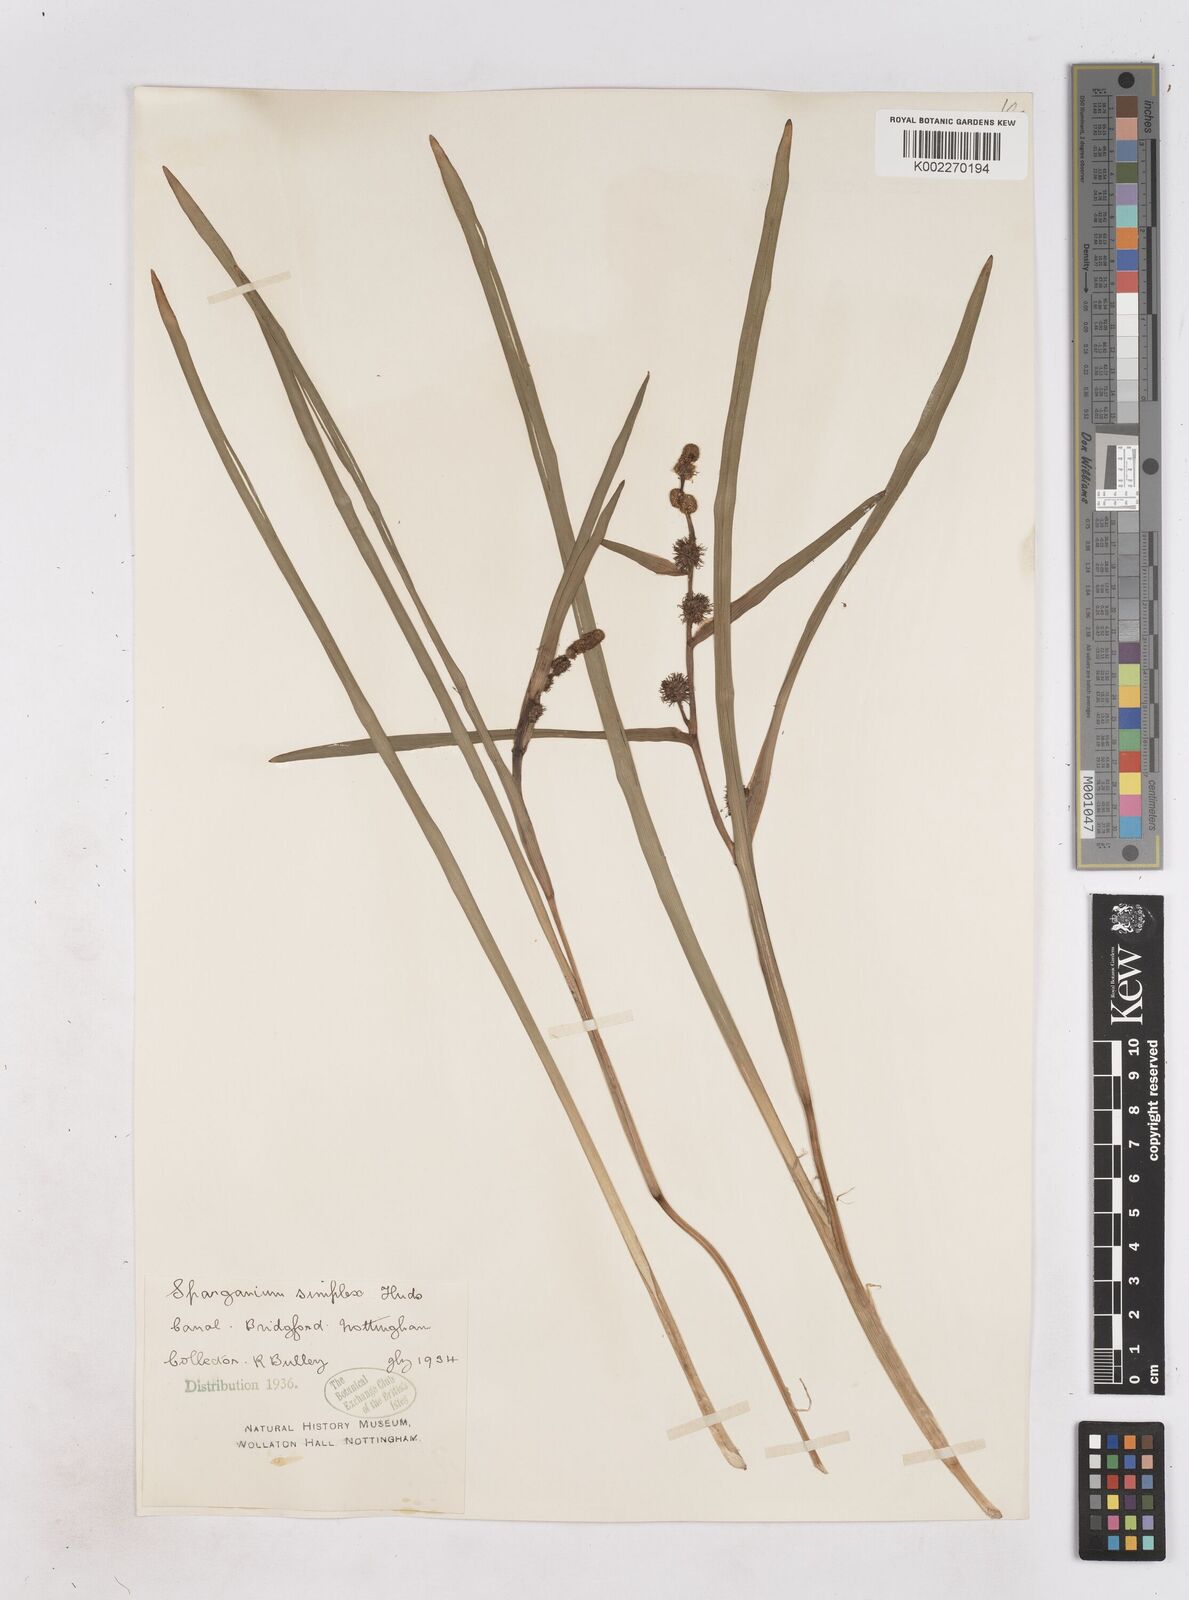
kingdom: Plantae
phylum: Tracheophyta
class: Liliopsida
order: Poales
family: Typhaceae
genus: Sparganium
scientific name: Sparganium emersum
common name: Unbranched bur-reed
